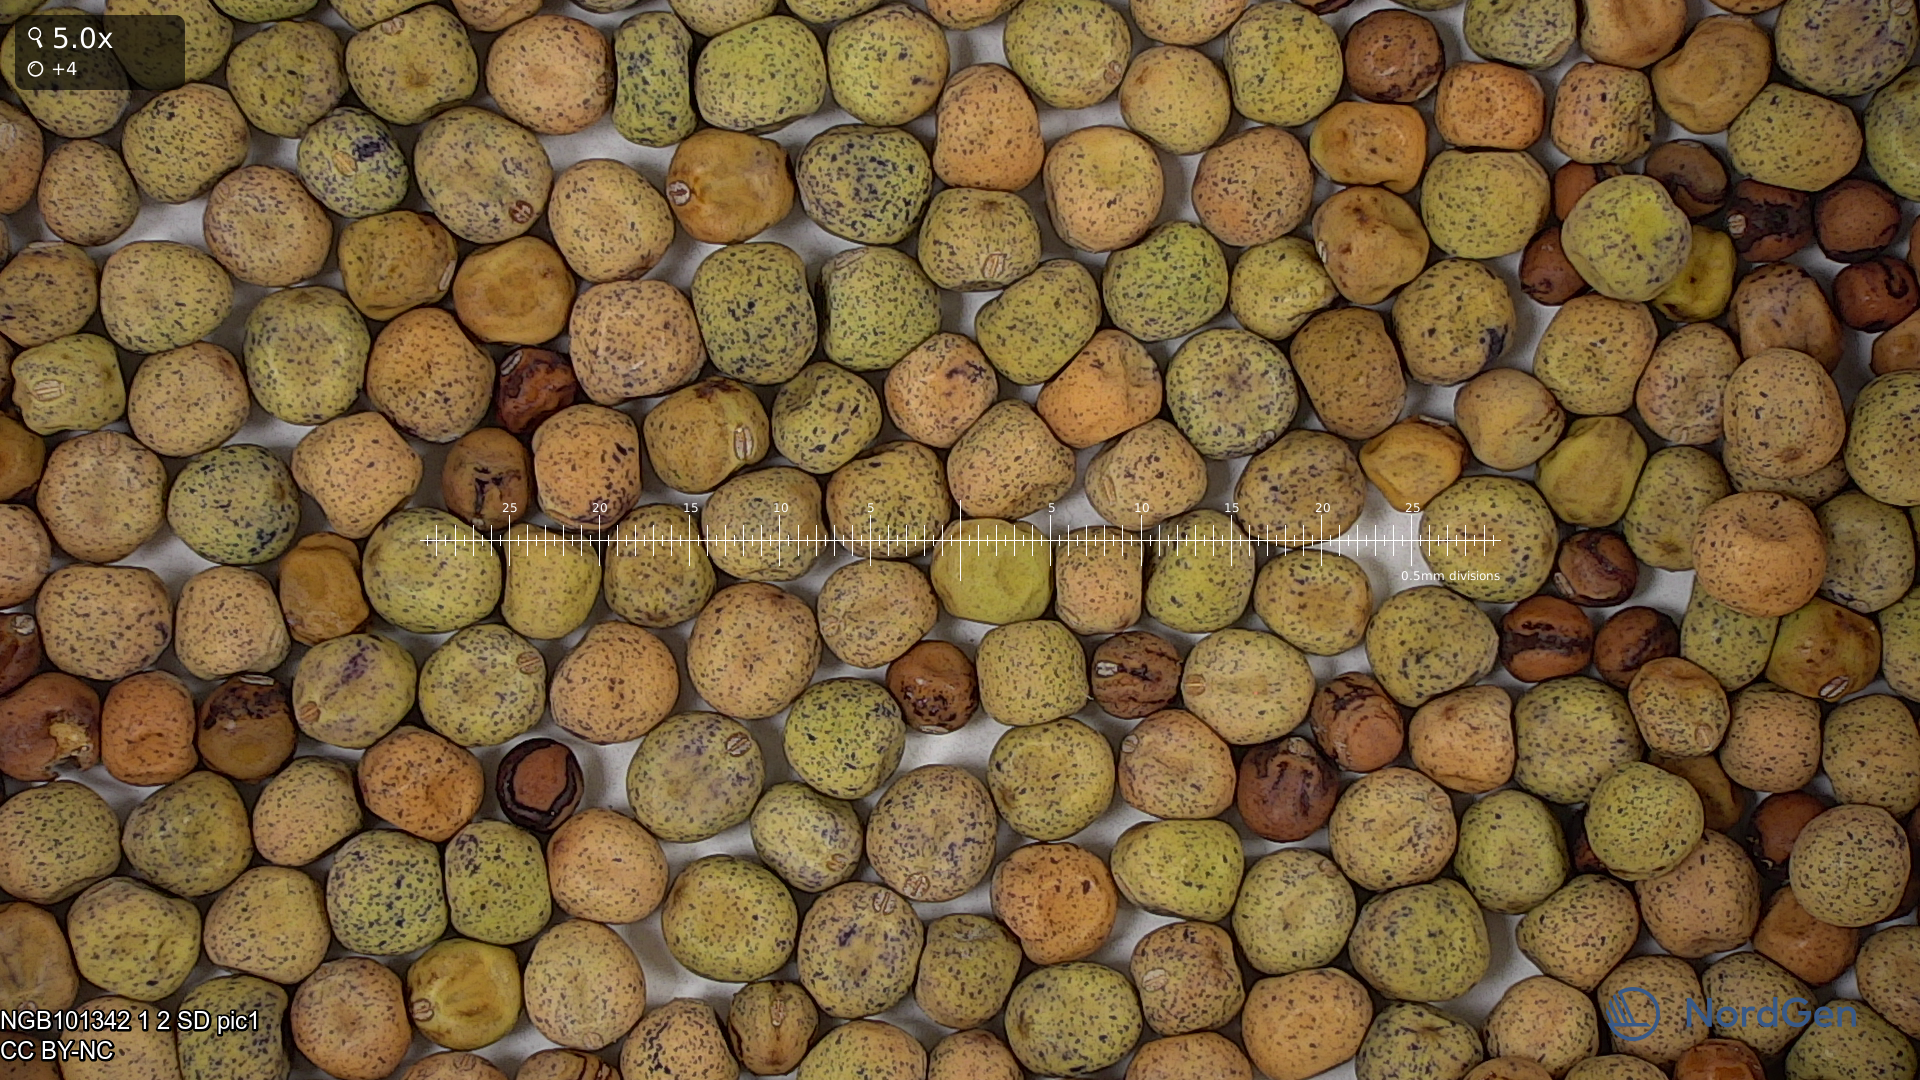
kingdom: Plantae
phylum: Tracheophyta
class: Magnoliopsida
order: Fabales
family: Fabaceae
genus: Lathyrus
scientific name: Lathyrus oleraceus
